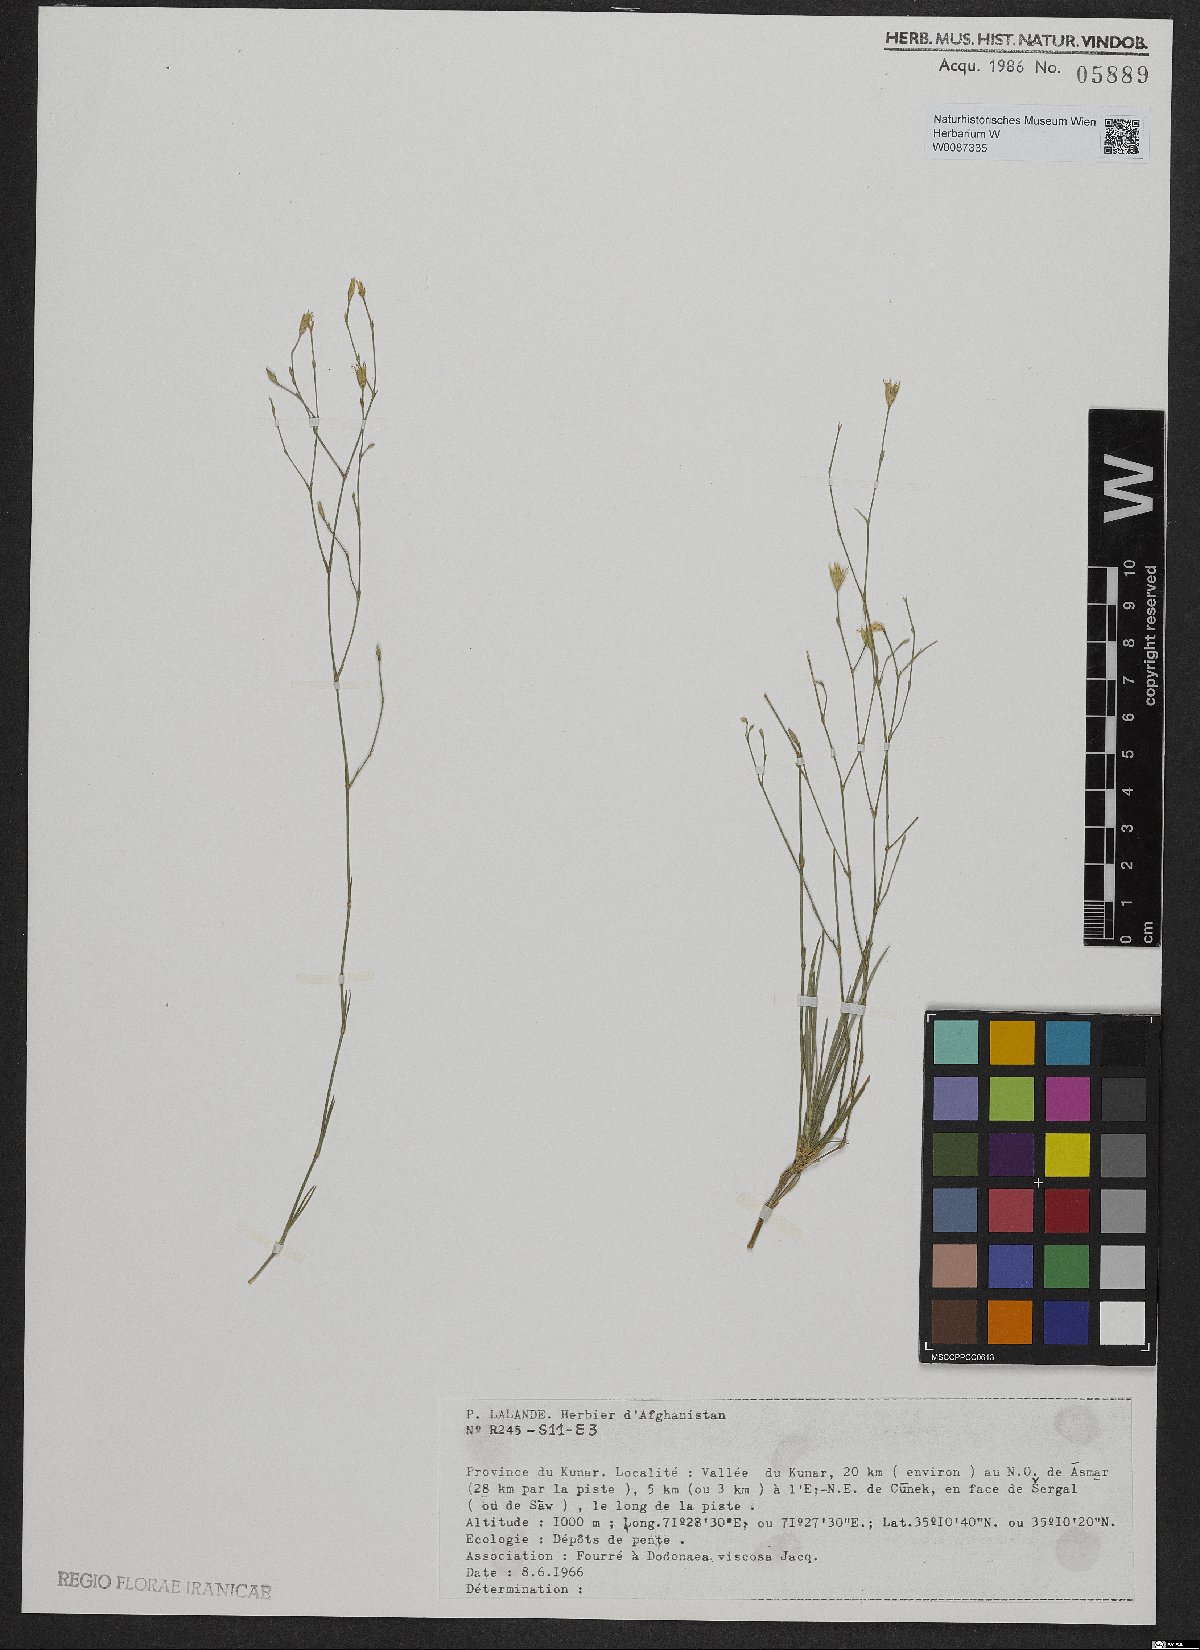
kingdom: Plantae
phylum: Tracheophyta
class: Magnoliopsida
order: Caryophyllales
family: Caryophyllaceae
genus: Dianthus
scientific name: Dianthus
